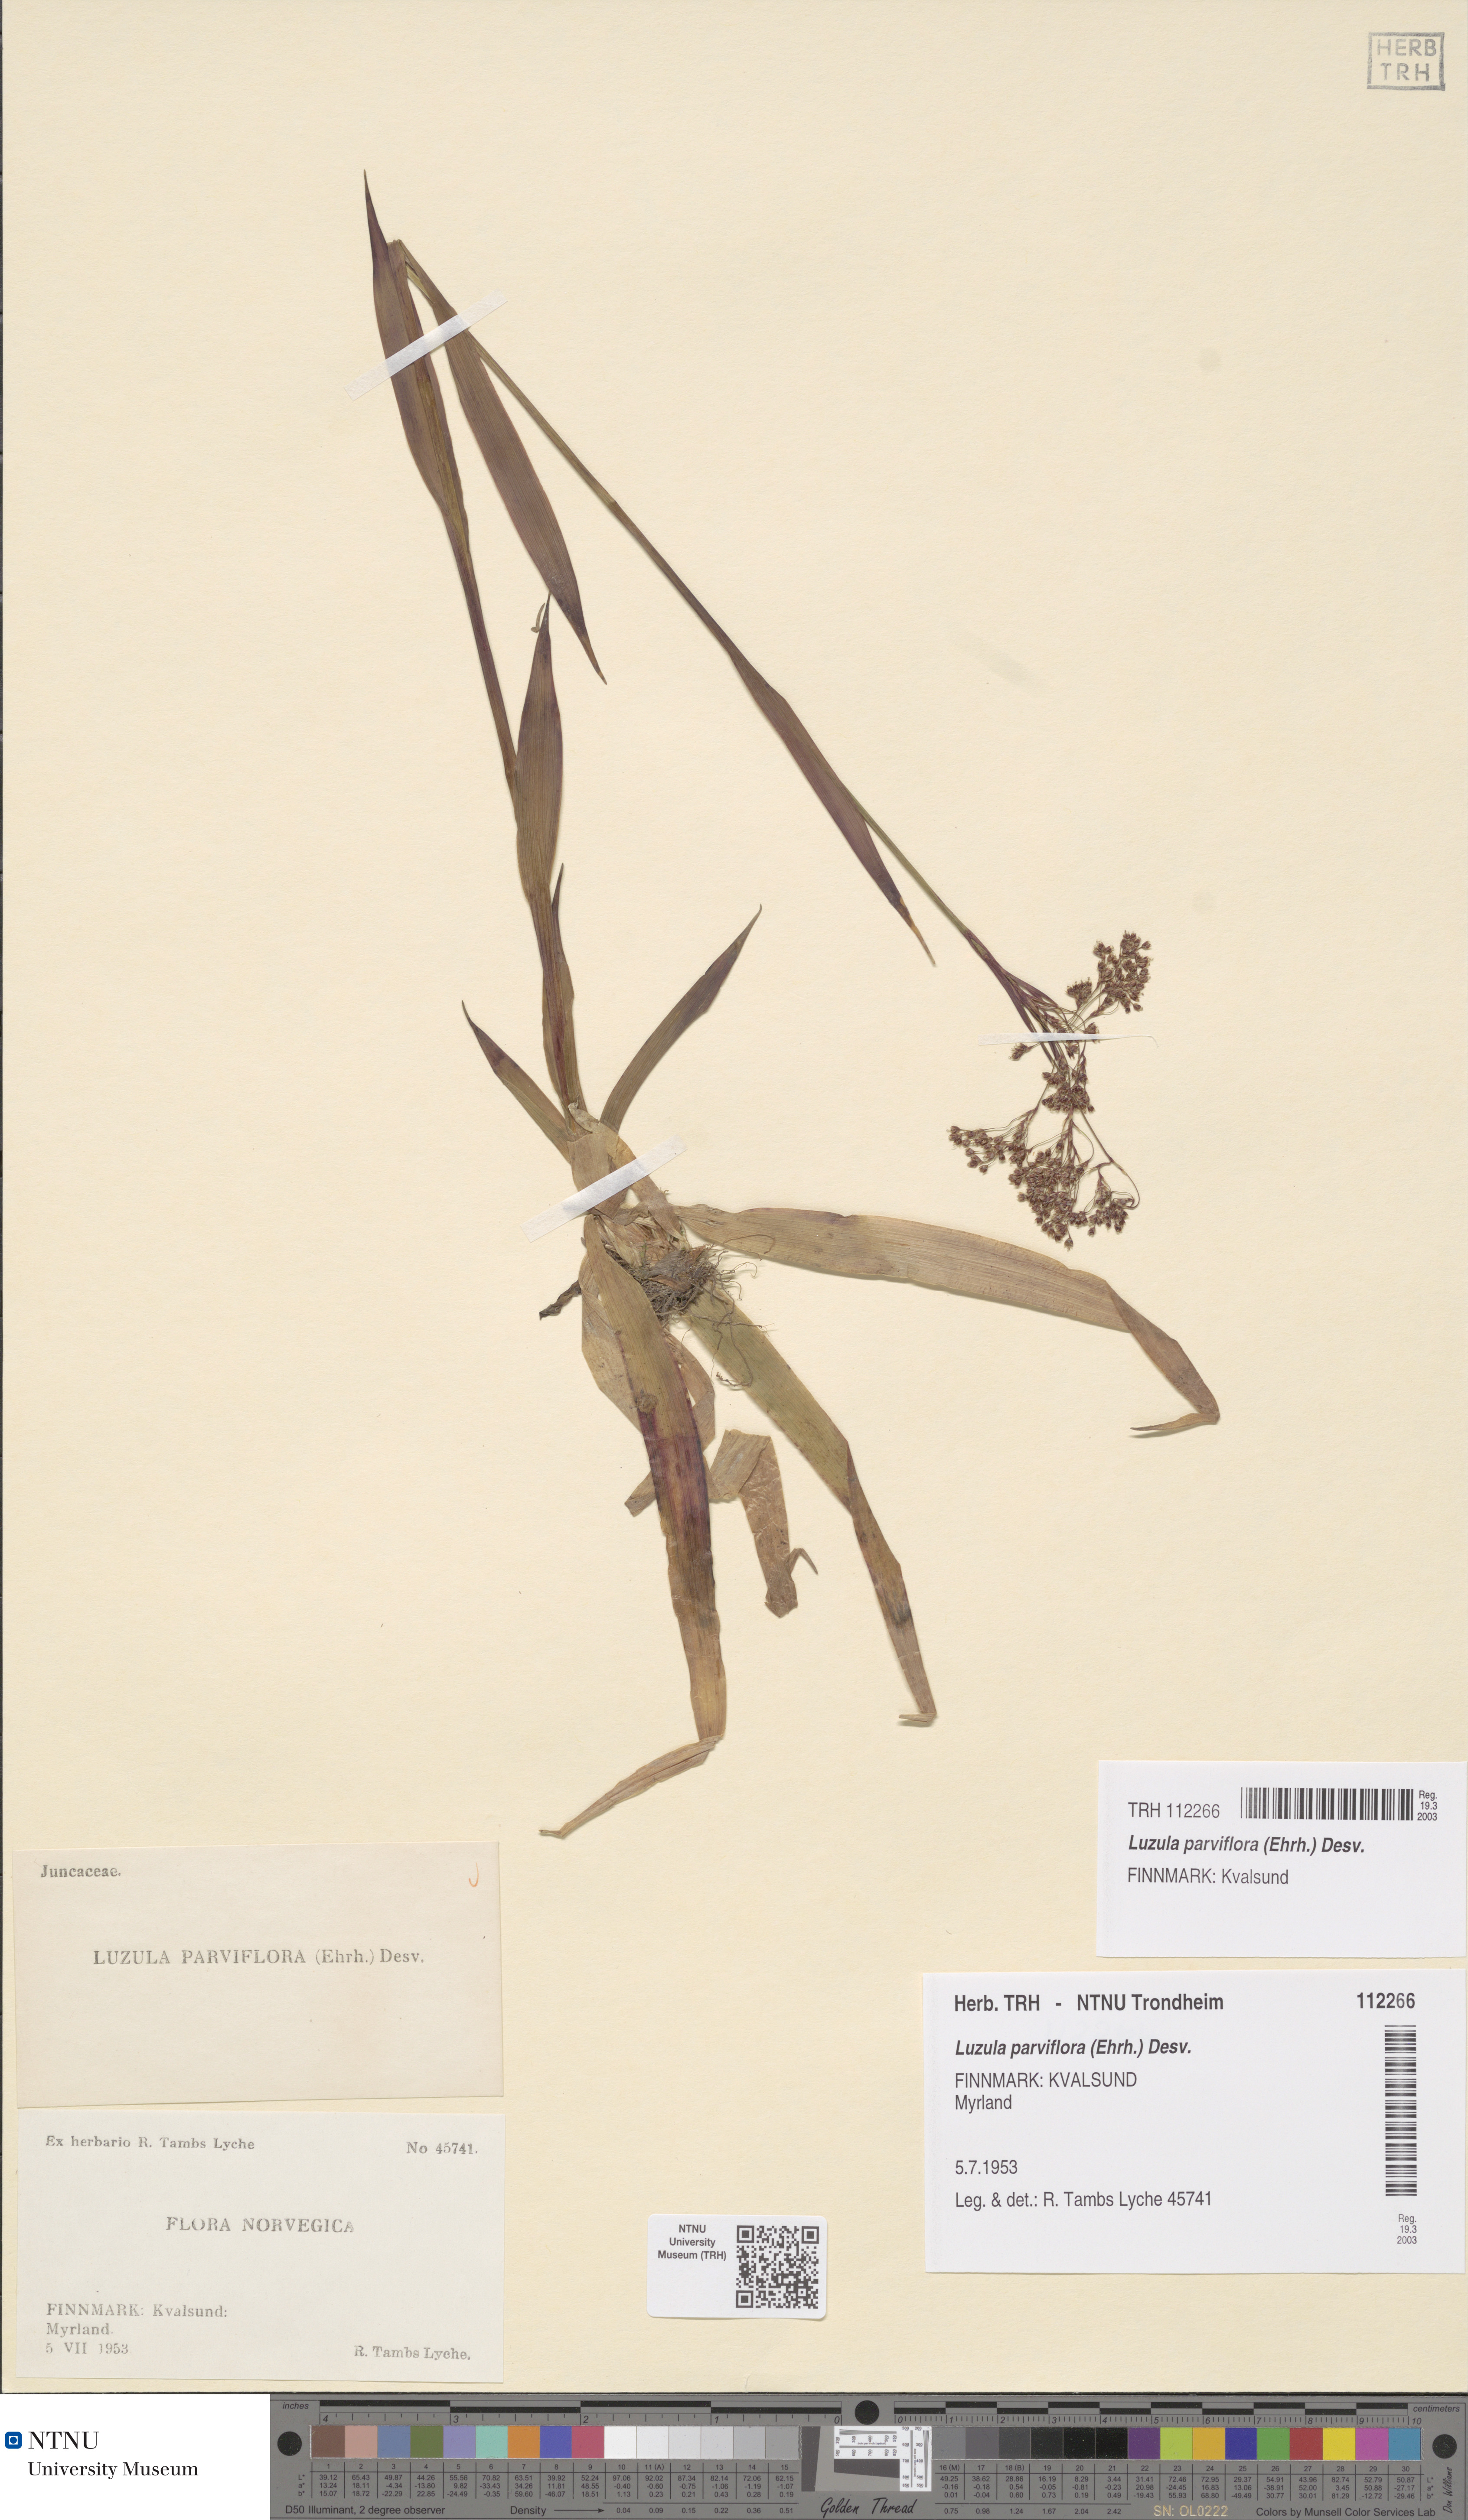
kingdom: Plantae
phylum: Tracheophyta
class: Liliopsida
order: Poales
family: Juncaceae
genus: Luzula
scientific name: Luzula parviflora
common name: Millet woodrush
